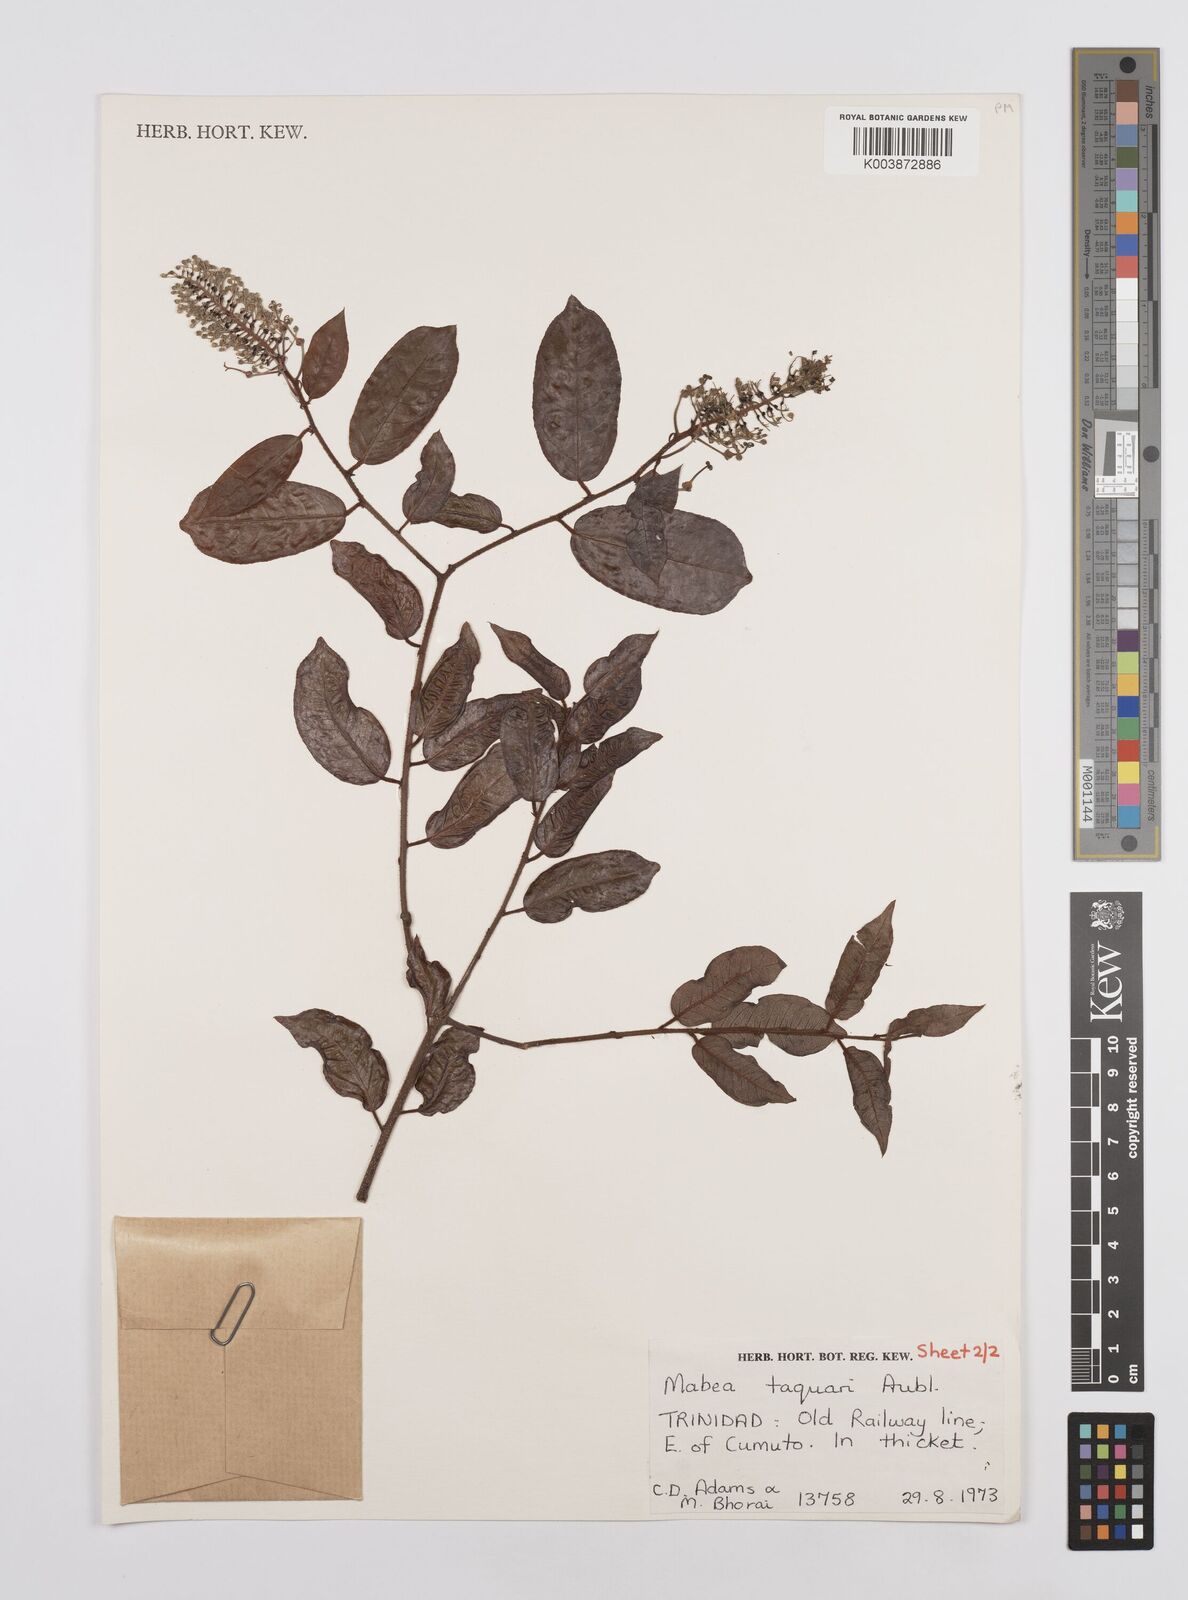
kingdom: Plantae
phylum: Tracheophyta
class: Magnoliopsida
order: Malpighiales
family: Euphorbiaceae
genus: Mabea
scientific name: Mabea taquari
